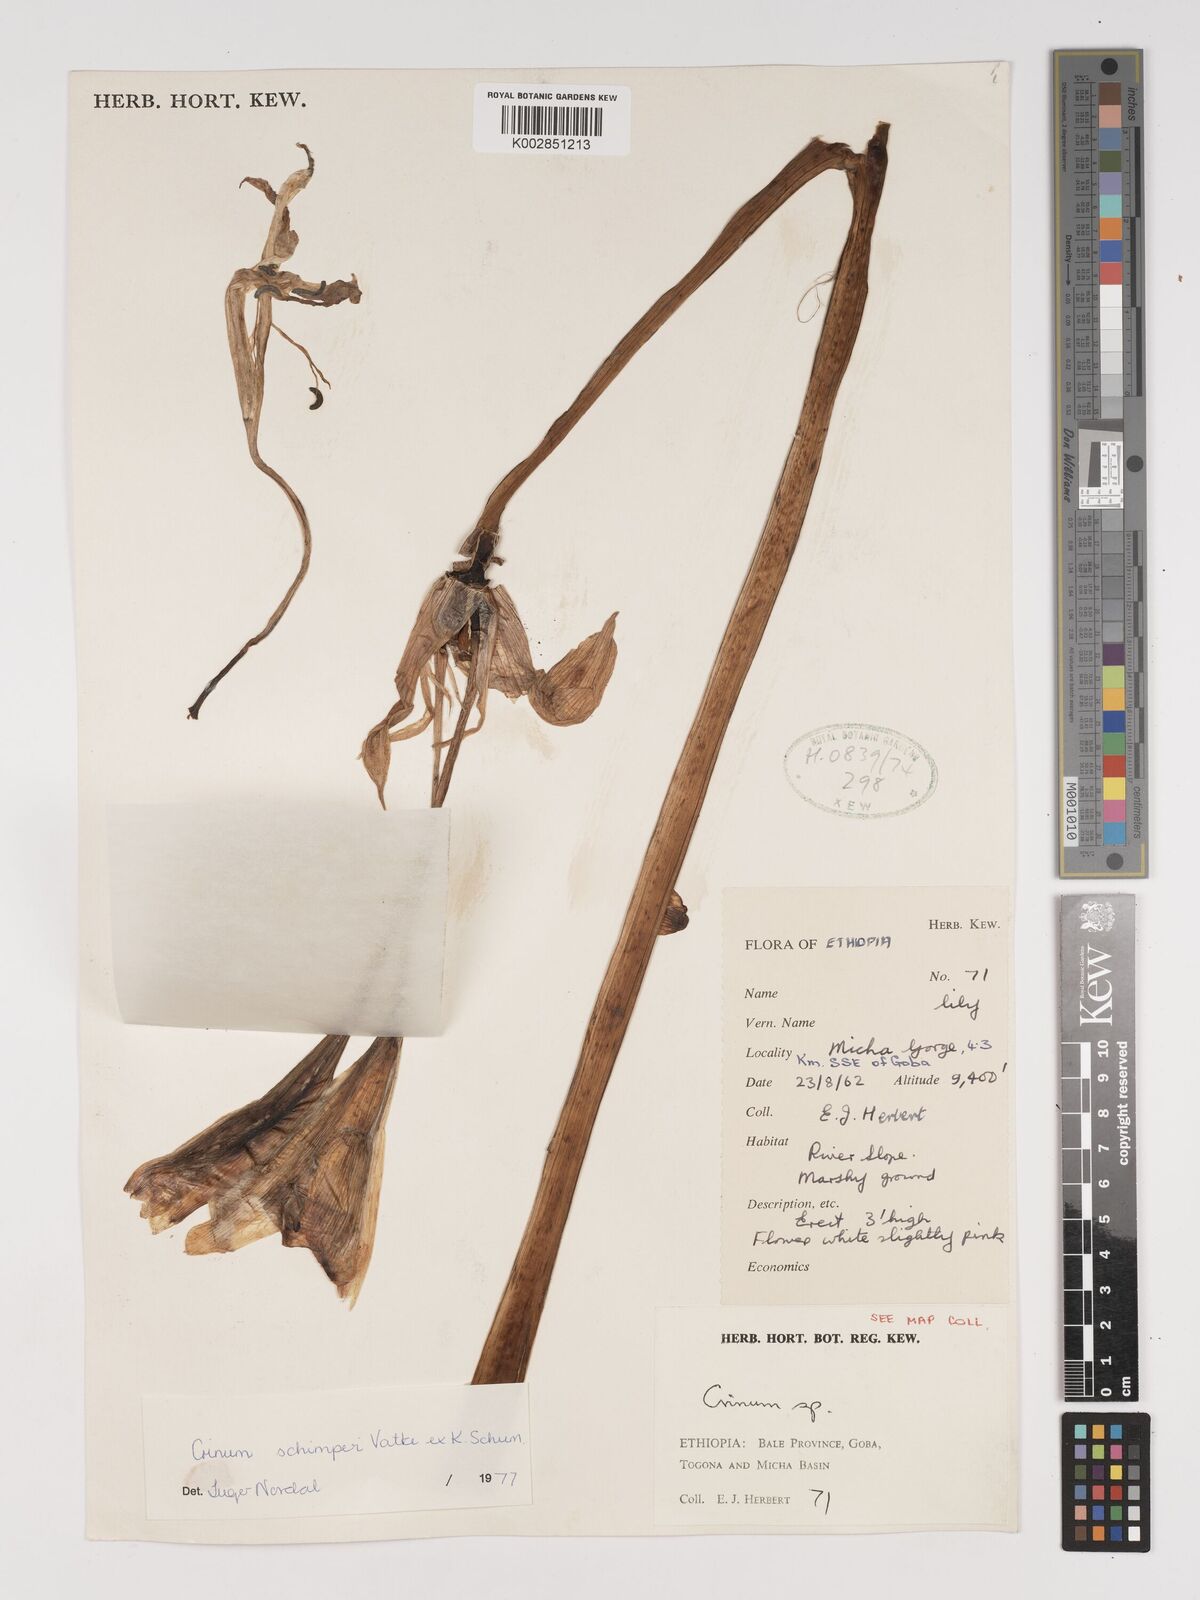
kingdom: Plantae
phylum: Tracheophyta
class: Liliopsida
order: Asparagales
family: Amaryllidaceae
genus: Crinum
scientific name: Crinum abyssinicum
